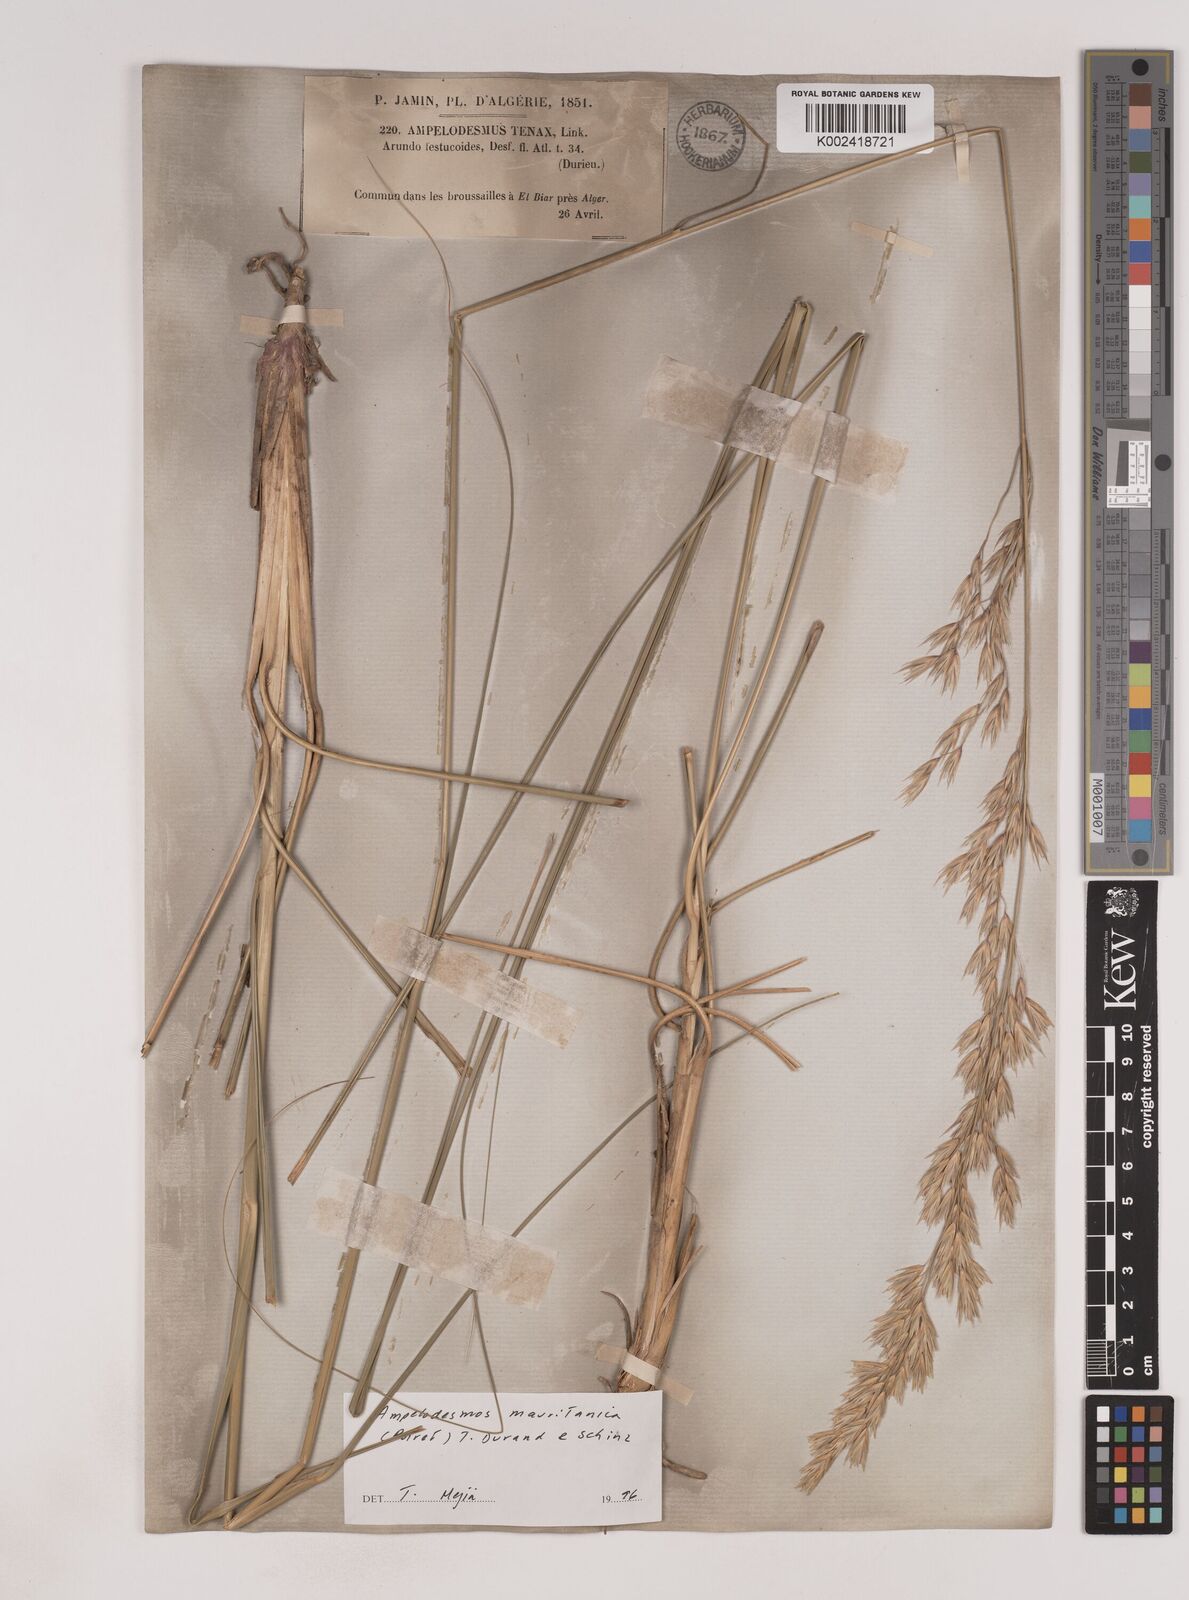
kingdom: Plantae
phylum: Tracheophyta
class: Liliopsida
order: Poales
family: Poaceae
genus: Ampelodesmos
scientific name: Ampelodesmos mauritanicus
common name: Mauritanian grass
